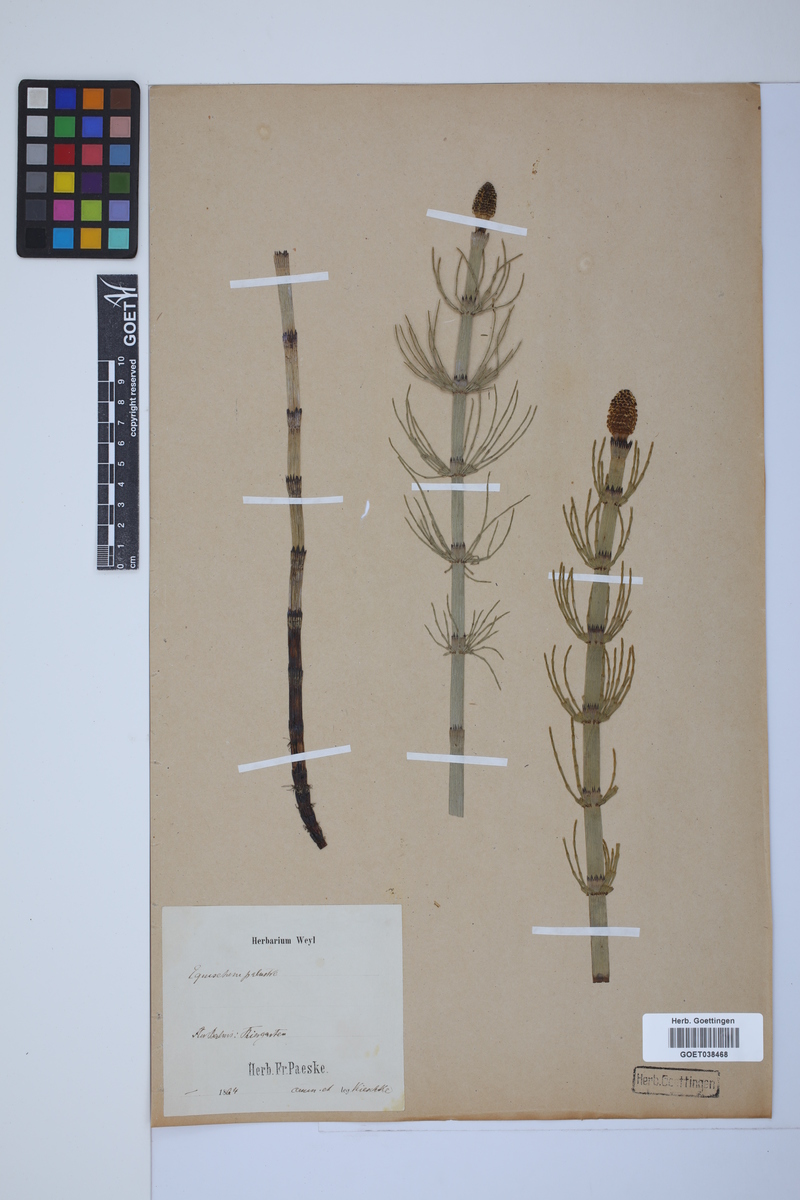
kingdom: Plantae
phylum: Tracheophyta
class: Polypodiopsida
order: Equisetales
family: Equisetaceae
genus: Equisetum
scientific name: Equisetum fluviatile
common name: Water horsetail
